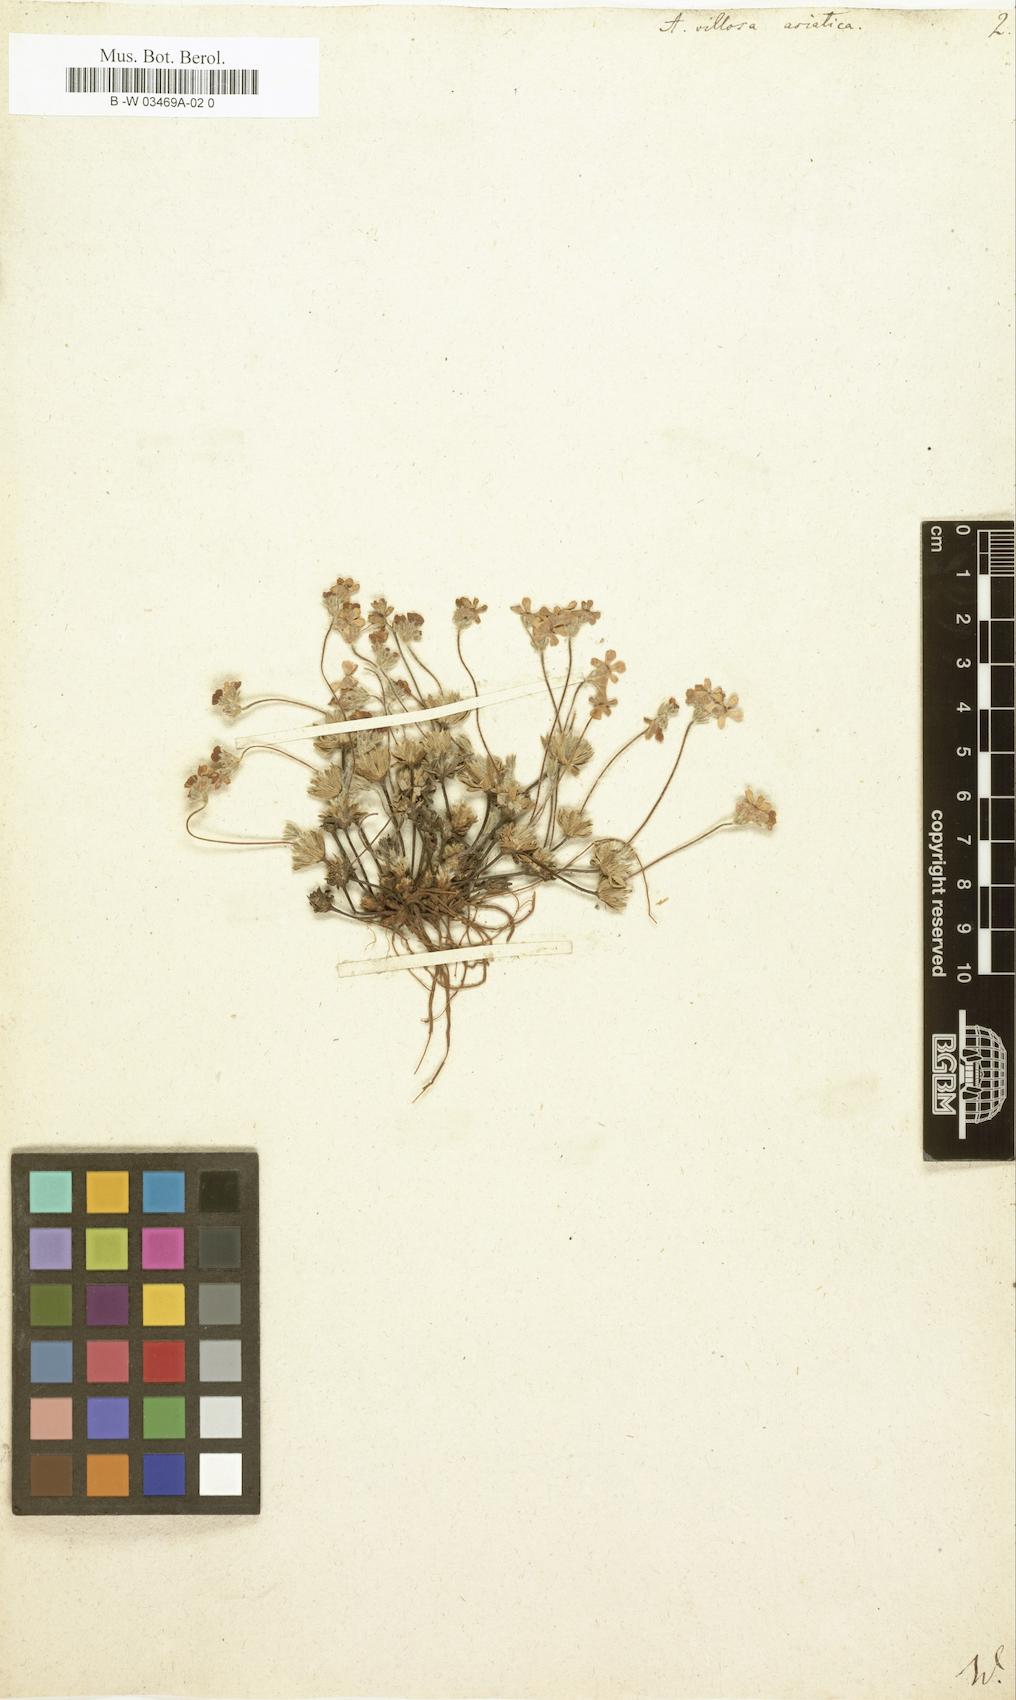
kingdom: Plantae
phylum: Tracheophyta
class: Magnoliopsida
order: Ericales
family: Primulaceae
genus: Androsace
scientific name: Androsace villosa
